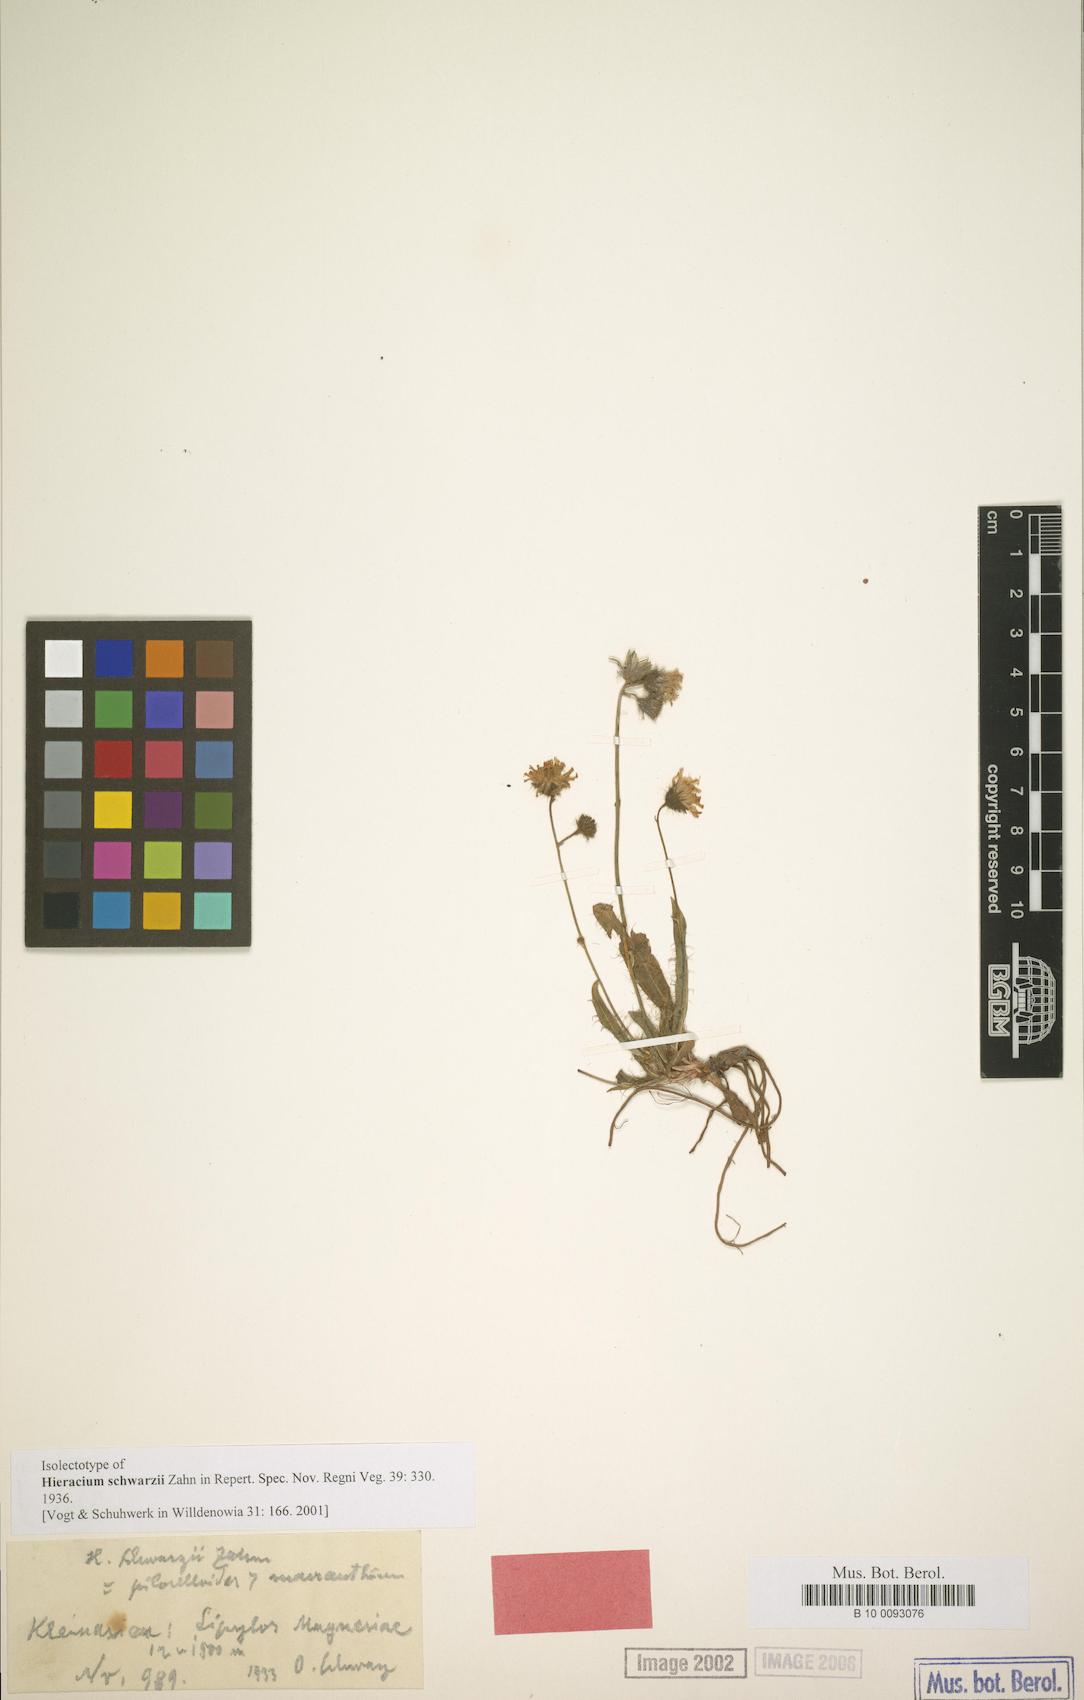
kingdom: Plantae
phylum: Tracheophyta
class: Magnoliopsida
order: Asterales
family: Asteraceae
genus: Hieracium
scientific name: Hieracium schwarzii
